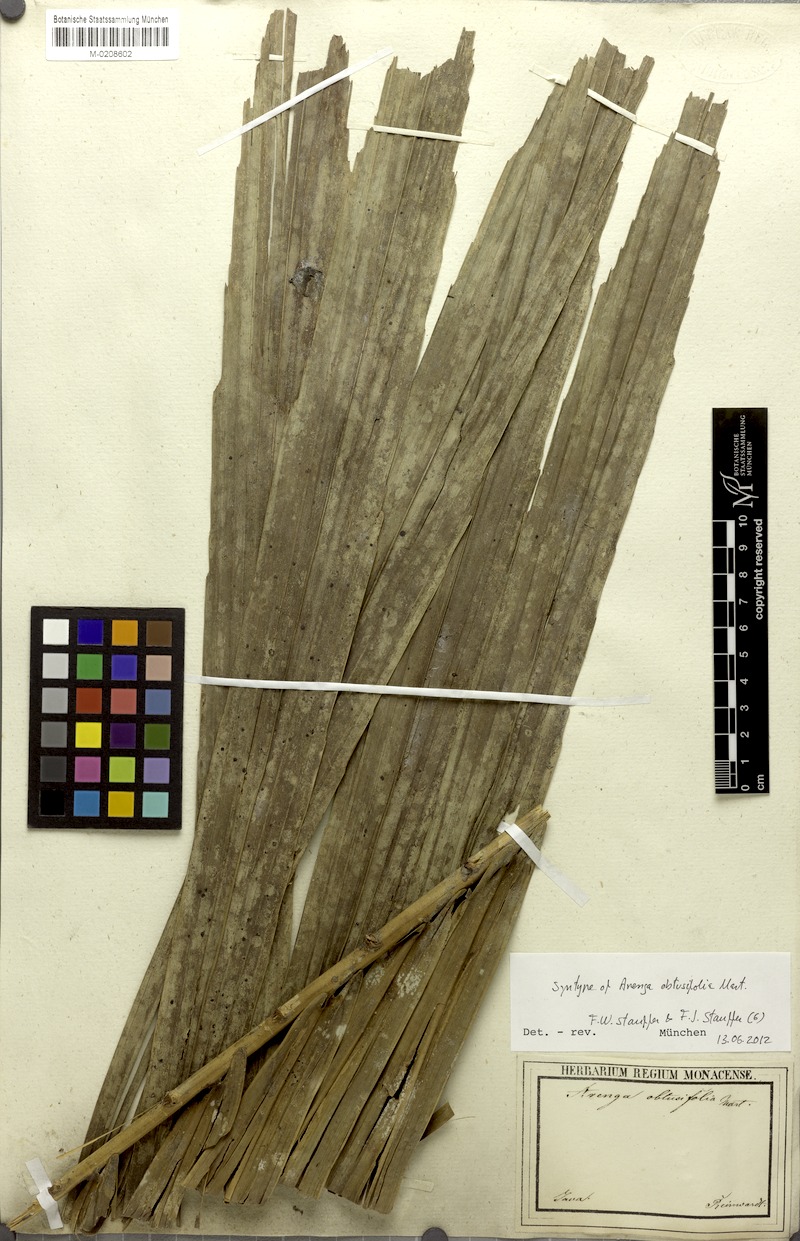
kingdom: Plantae
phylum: Tracheophyta
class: Liliopsida
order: Arecales
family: Arecaceae
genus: Arenga
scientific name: Arenga obtusifolia
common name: Lang kap
